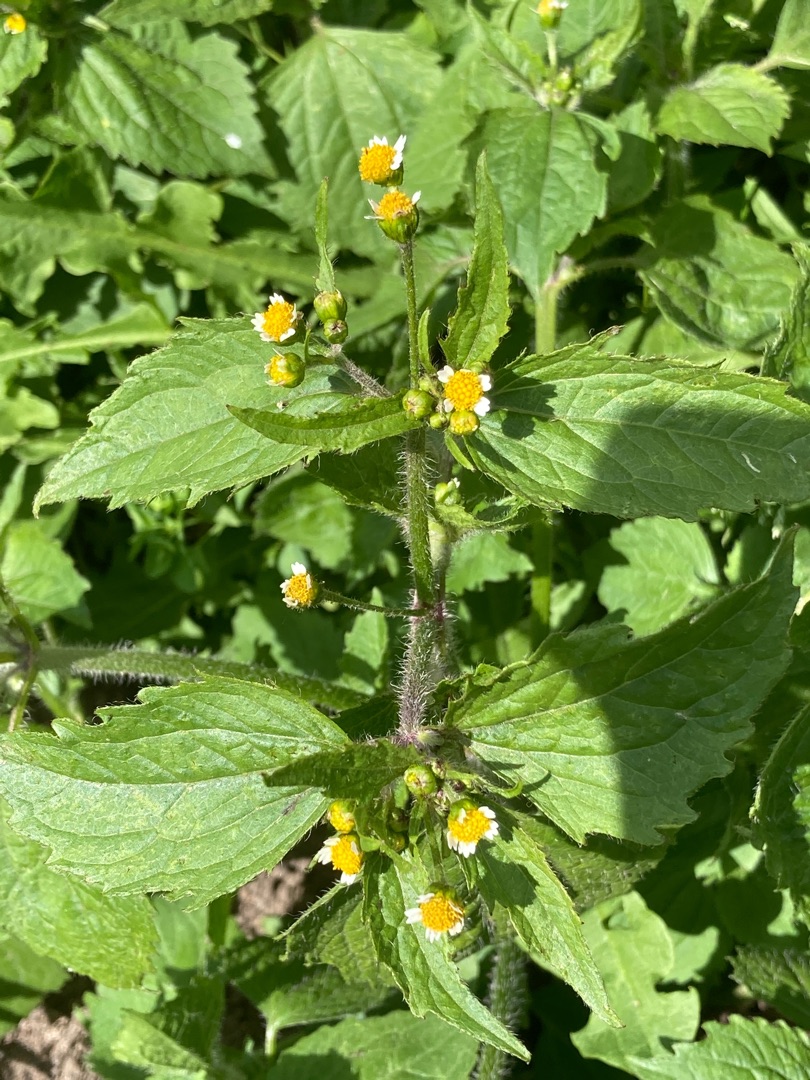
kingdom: Plantae
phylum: Tracheophyta
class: Magnoliopsida
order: Asterales
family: Asteraceae
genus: Galinsoga
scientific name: Galinsoga quadriradiata
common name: Kirtel-kortstråle
